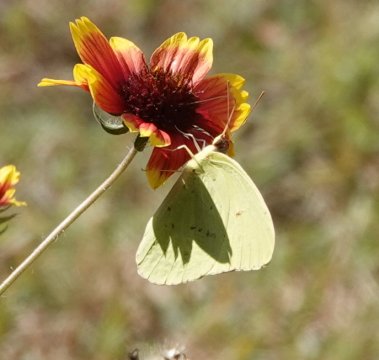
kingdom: Animalia
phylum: Arthropoda
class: Insecta
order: Lepidoptera
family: Pieridae
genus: Phoebis
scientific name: Phoebis sennae
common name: Cloudless Sulphur
